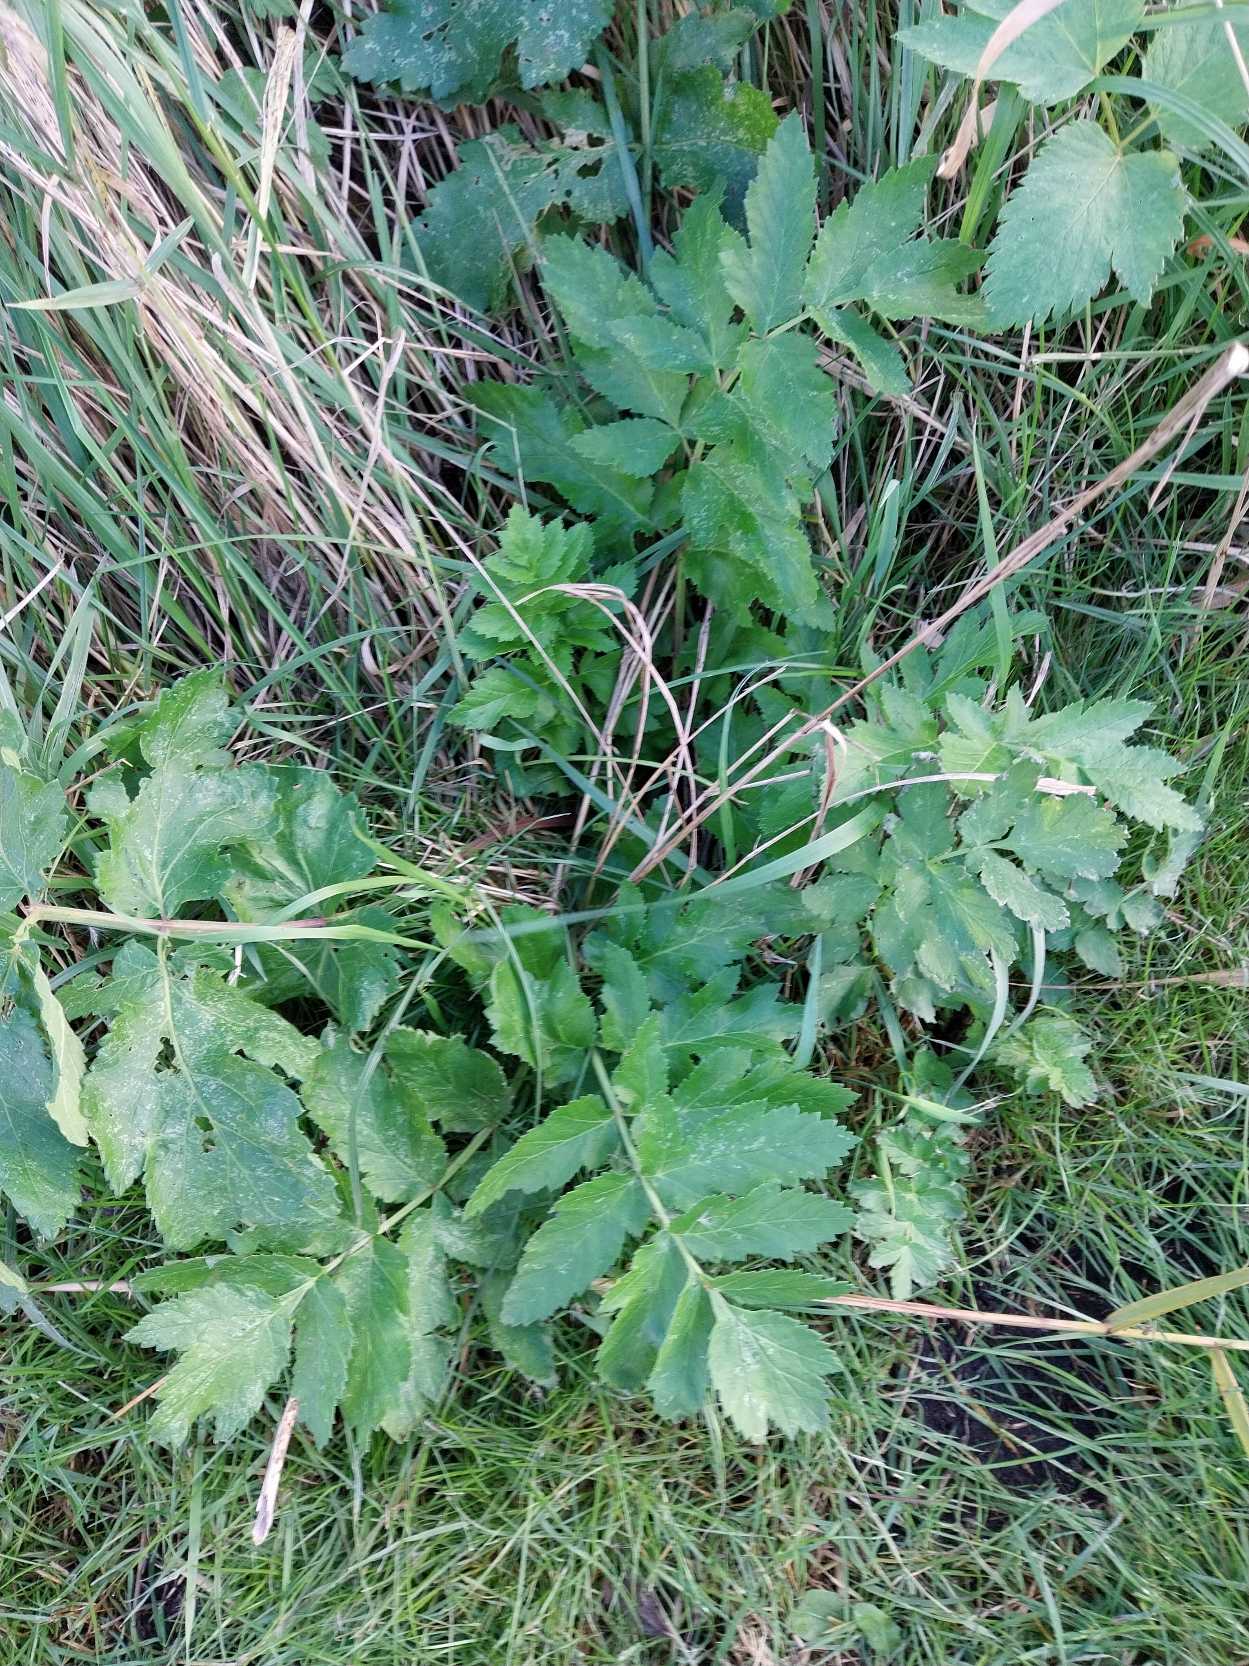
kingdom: Plantae
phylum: Tracheophyta
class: Magnoliopsida
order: Apiales
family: Apiaceae
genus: Pastinaca
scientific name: Pastinaca sativa
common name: Pastinak
